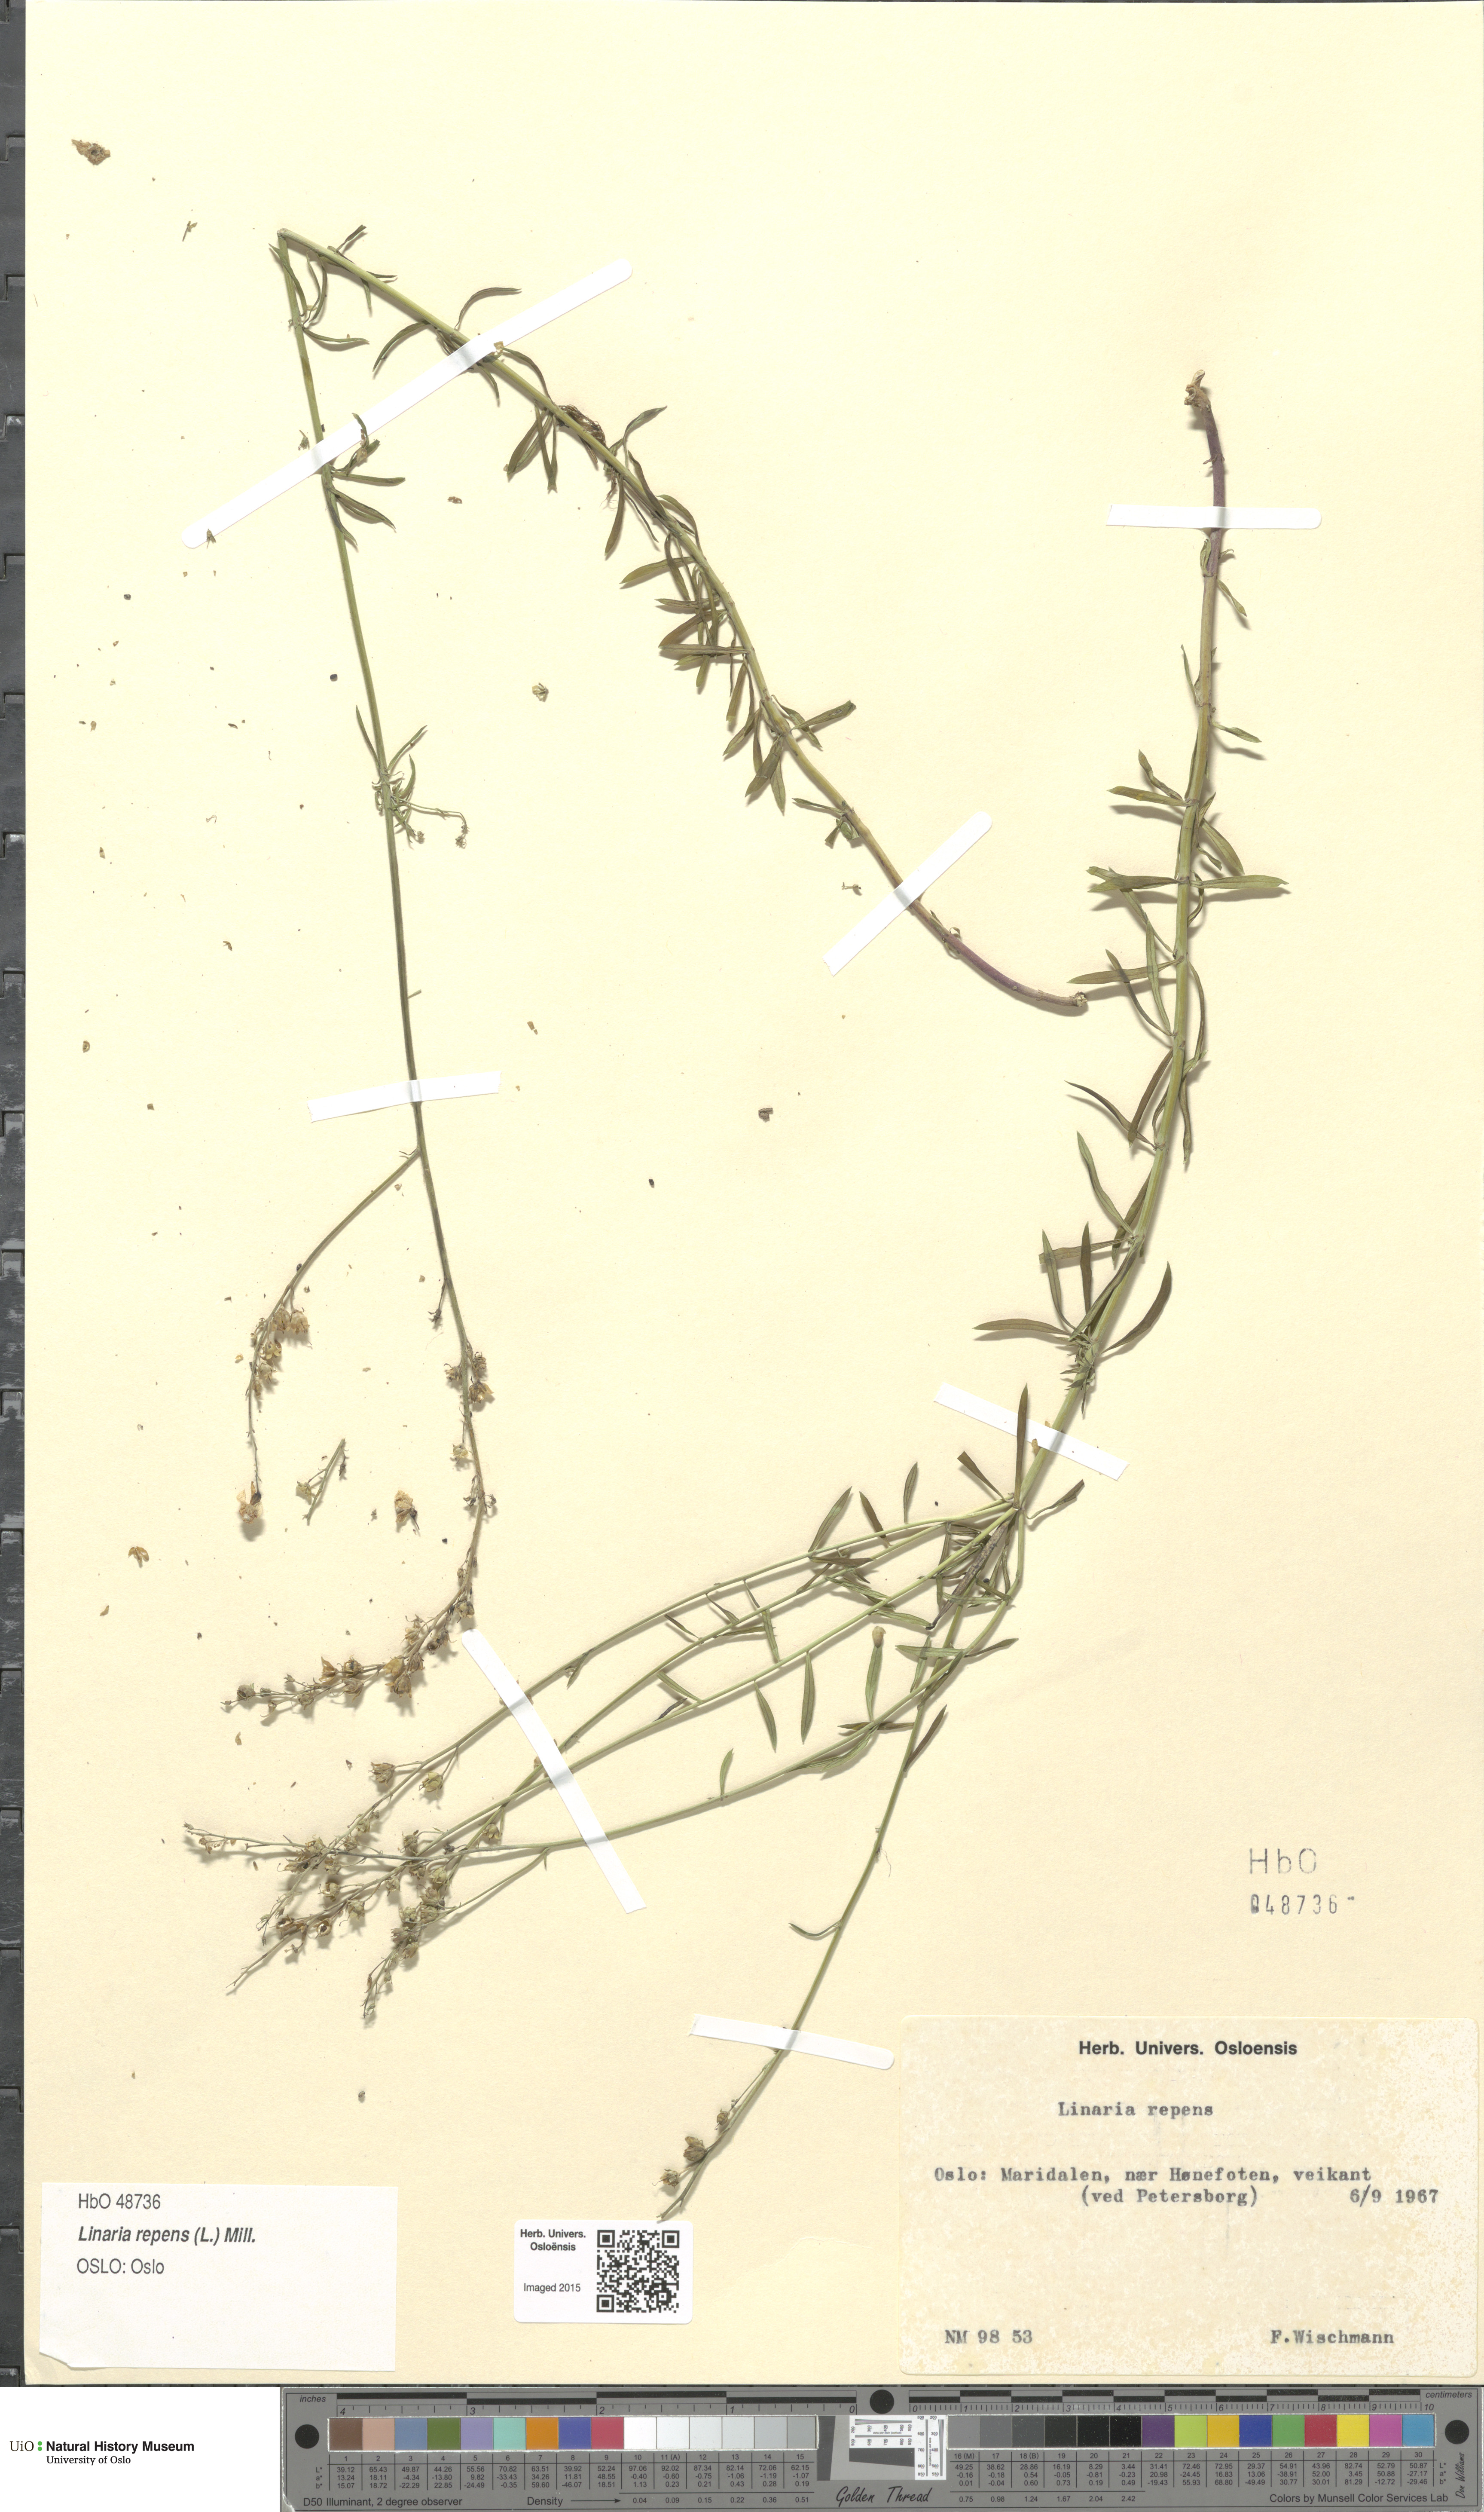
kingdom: Plantae
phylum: Tracheophyta
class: Magnoliopsida
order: Lamiales
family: Plantaginaceae
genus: Linaria
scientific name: Linaria repens
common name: Pale toadflax
